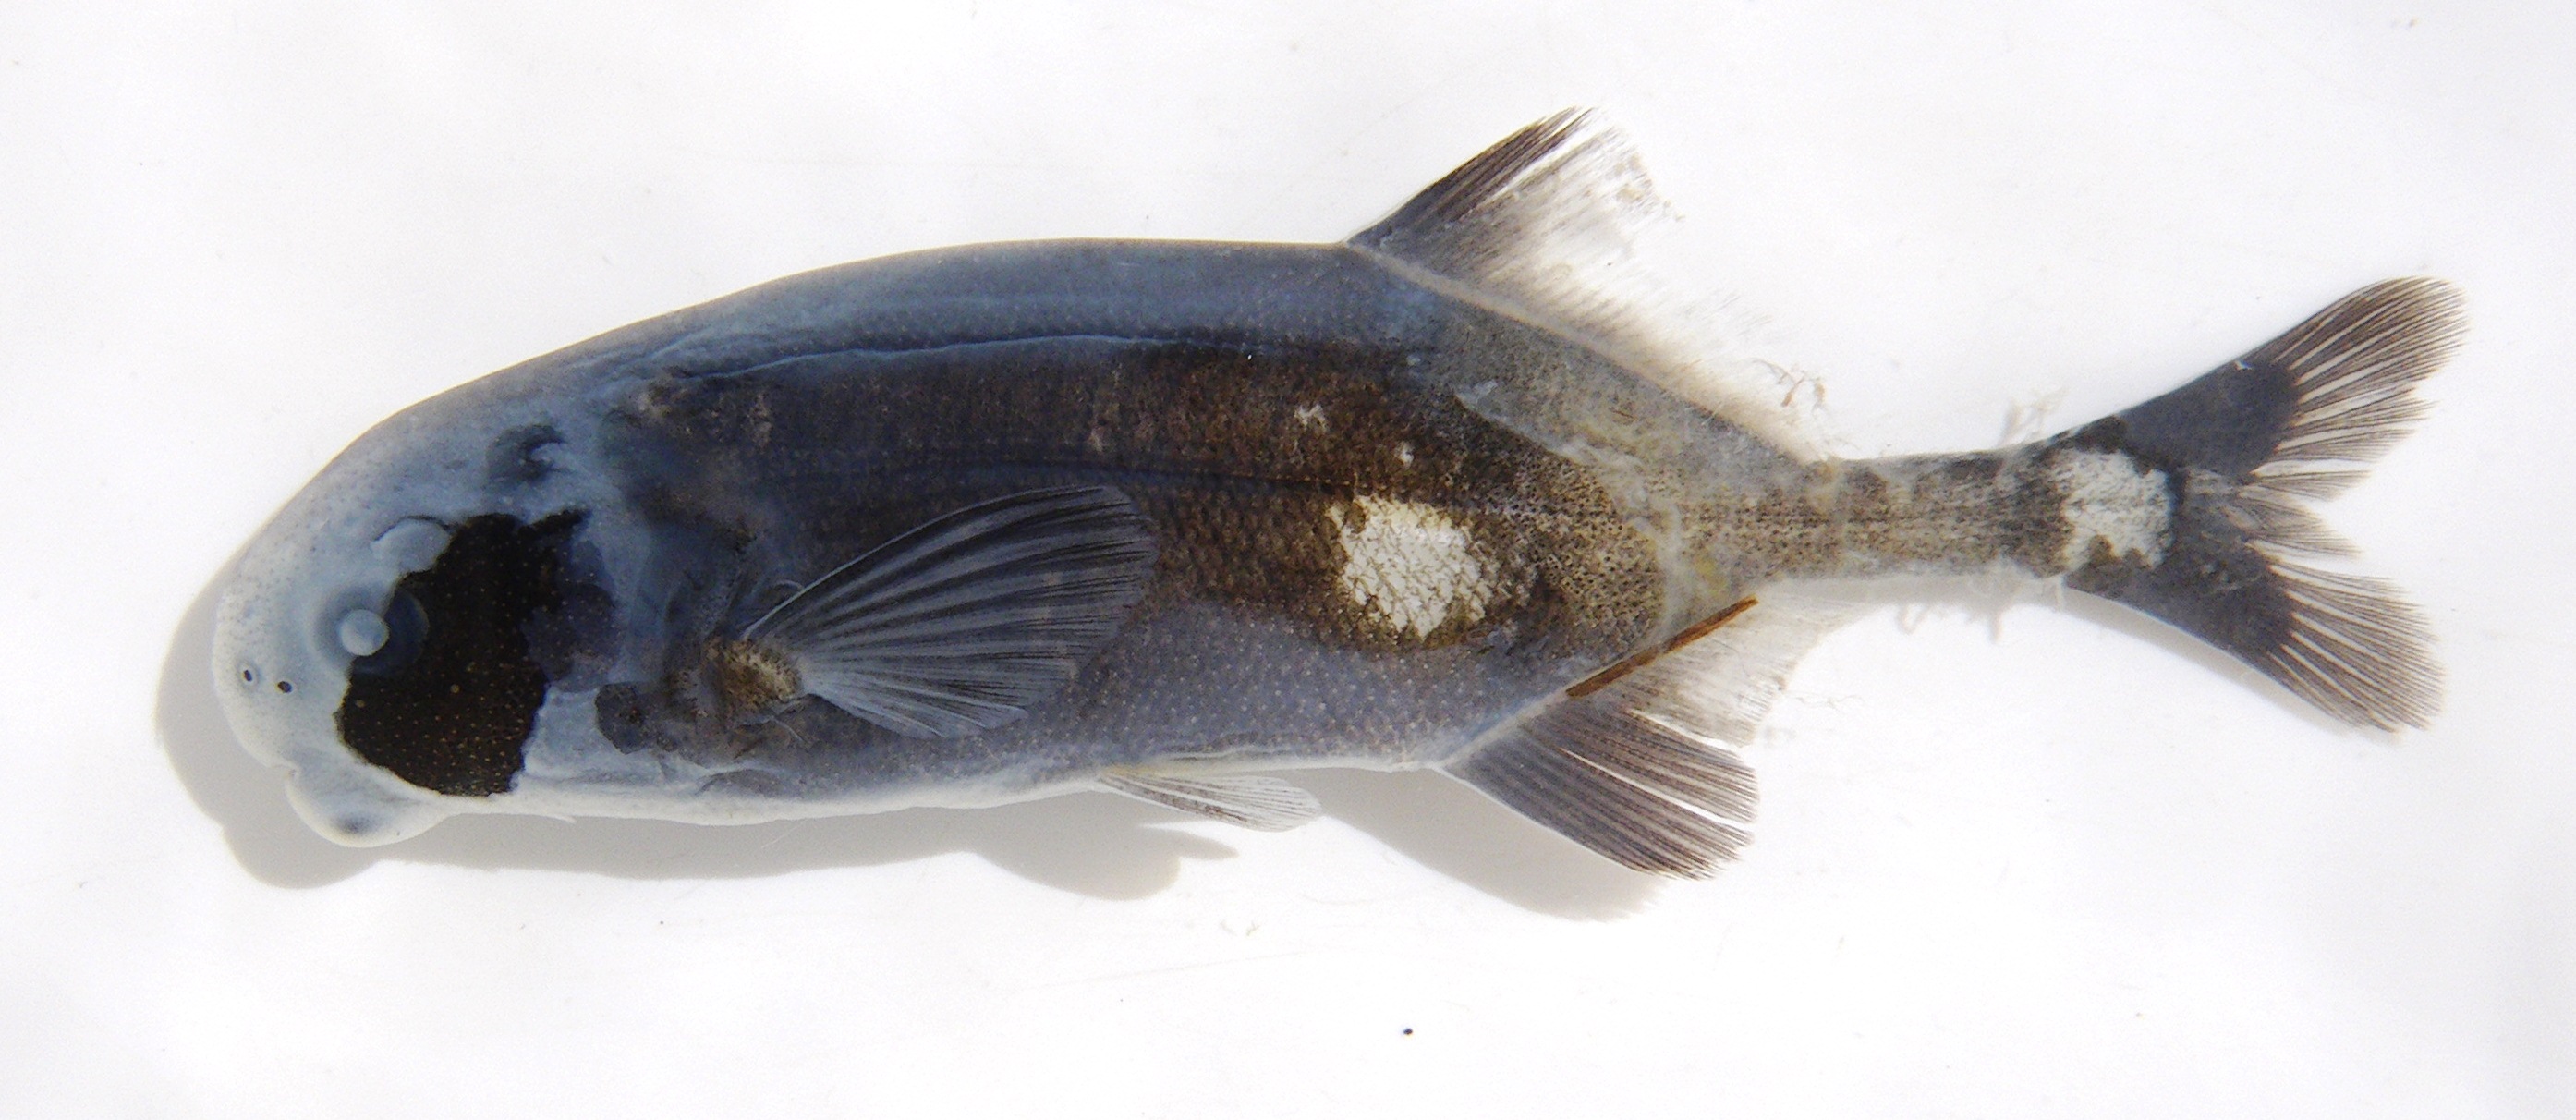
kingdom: Animalia
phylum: Chordata
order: Osteoglossiformes
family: Mormyridae
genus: Cyphomyrus
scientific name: Cyphomyrus
